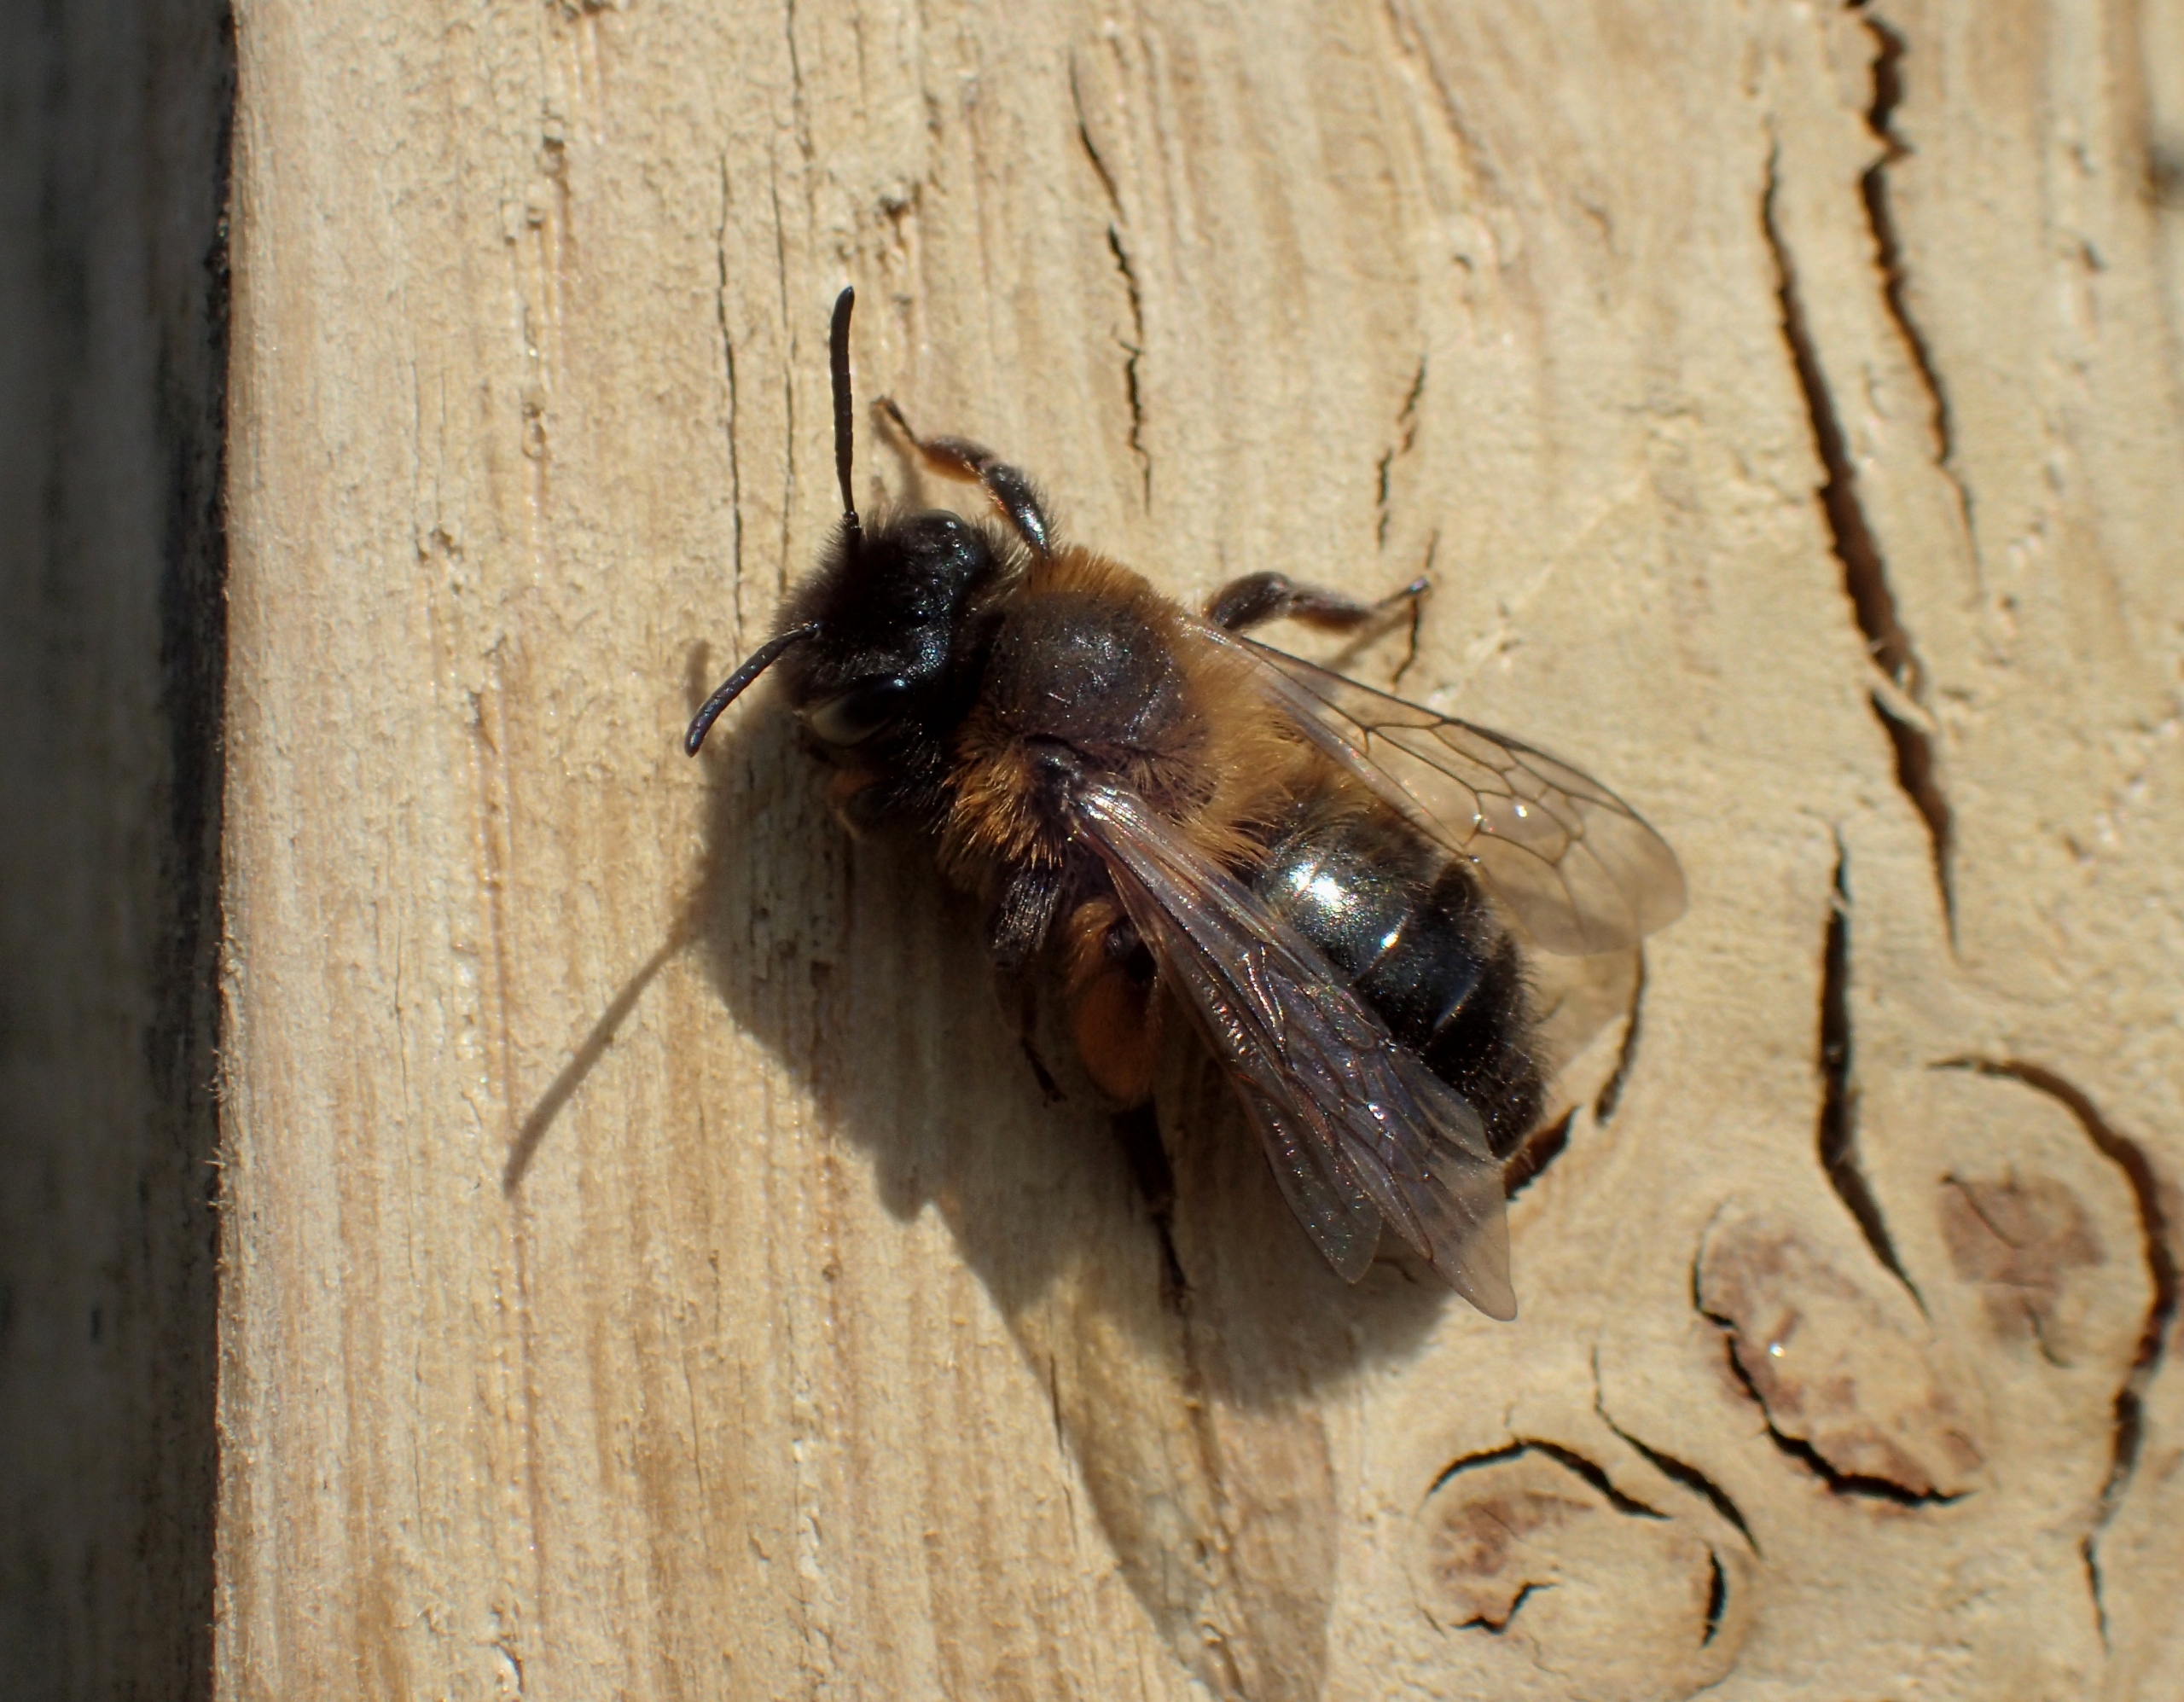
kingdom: Animalia
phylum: Arthropoda
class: Insecta
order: Hymenoptera
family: Andrenidae
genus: Andrena
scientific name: Andrena bicolor
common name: Tofarvet jordbi
